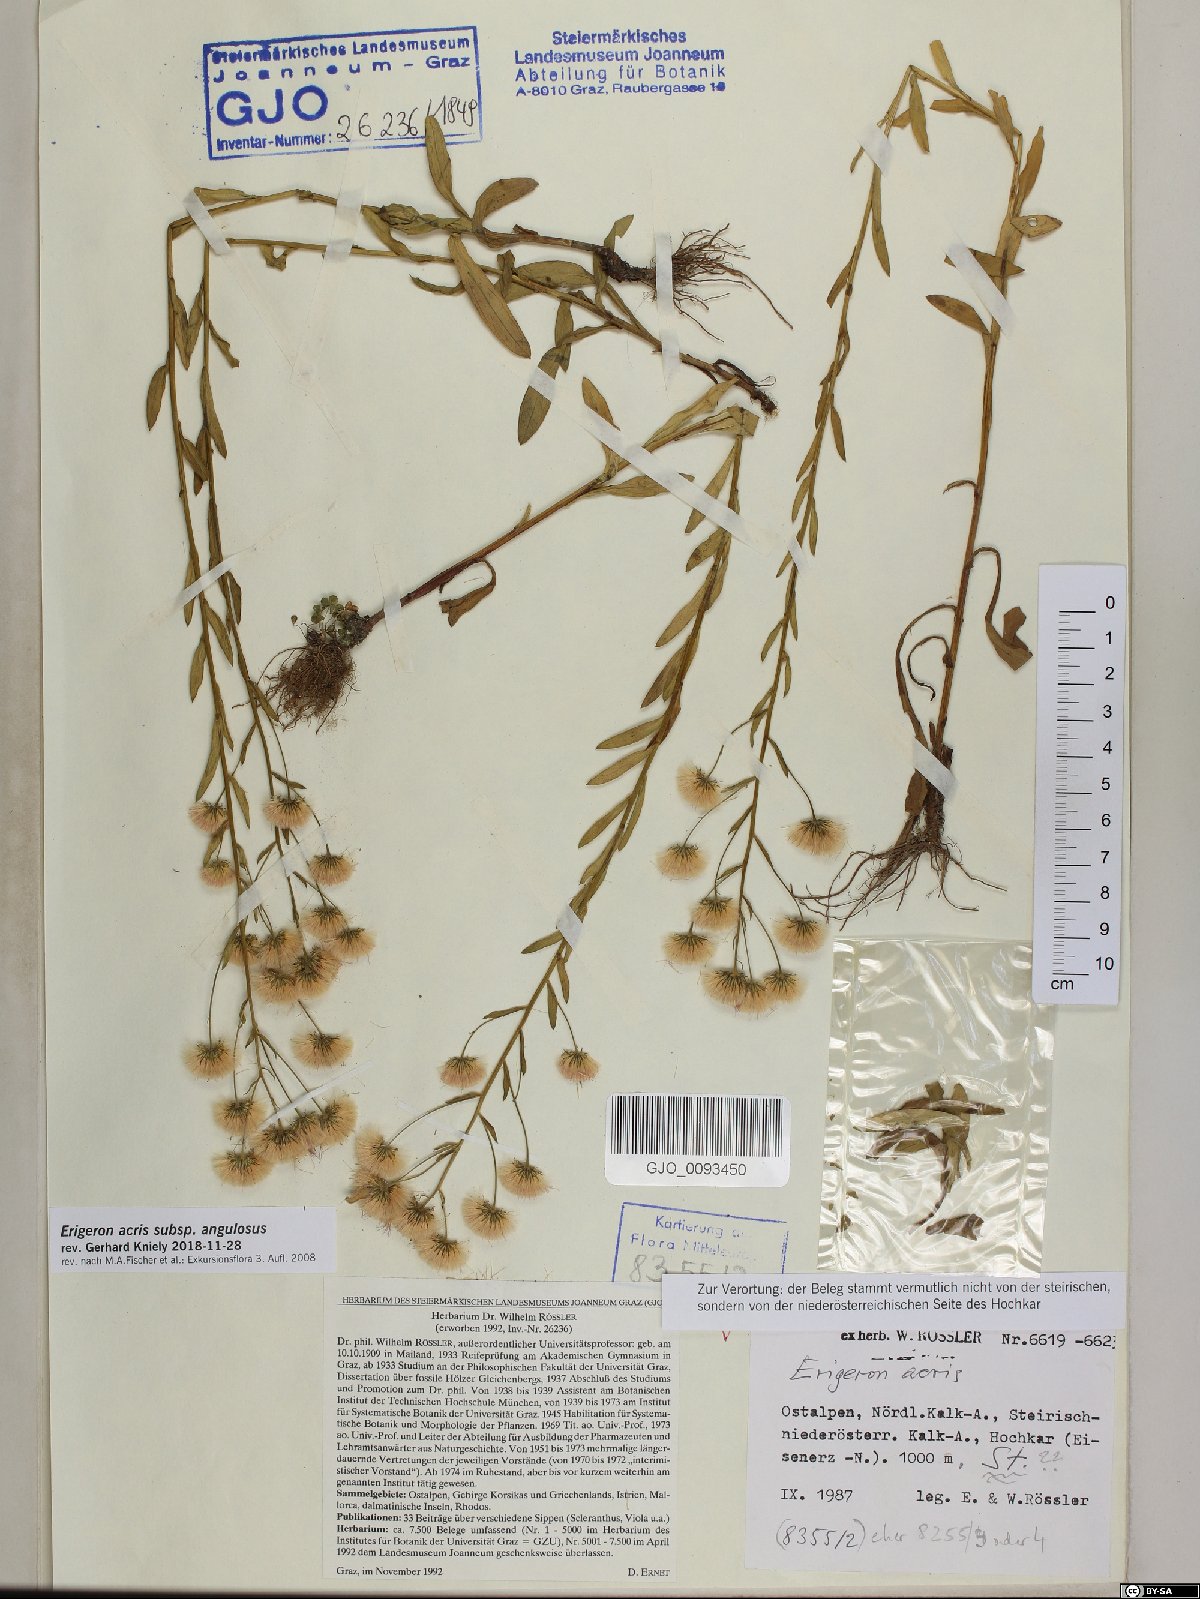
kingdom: Plantae
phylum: Tracheophyta
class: Magnoliopsida
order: Asterales
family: Asteraceae
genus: Erigeron
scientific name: Erigeron angulosus
